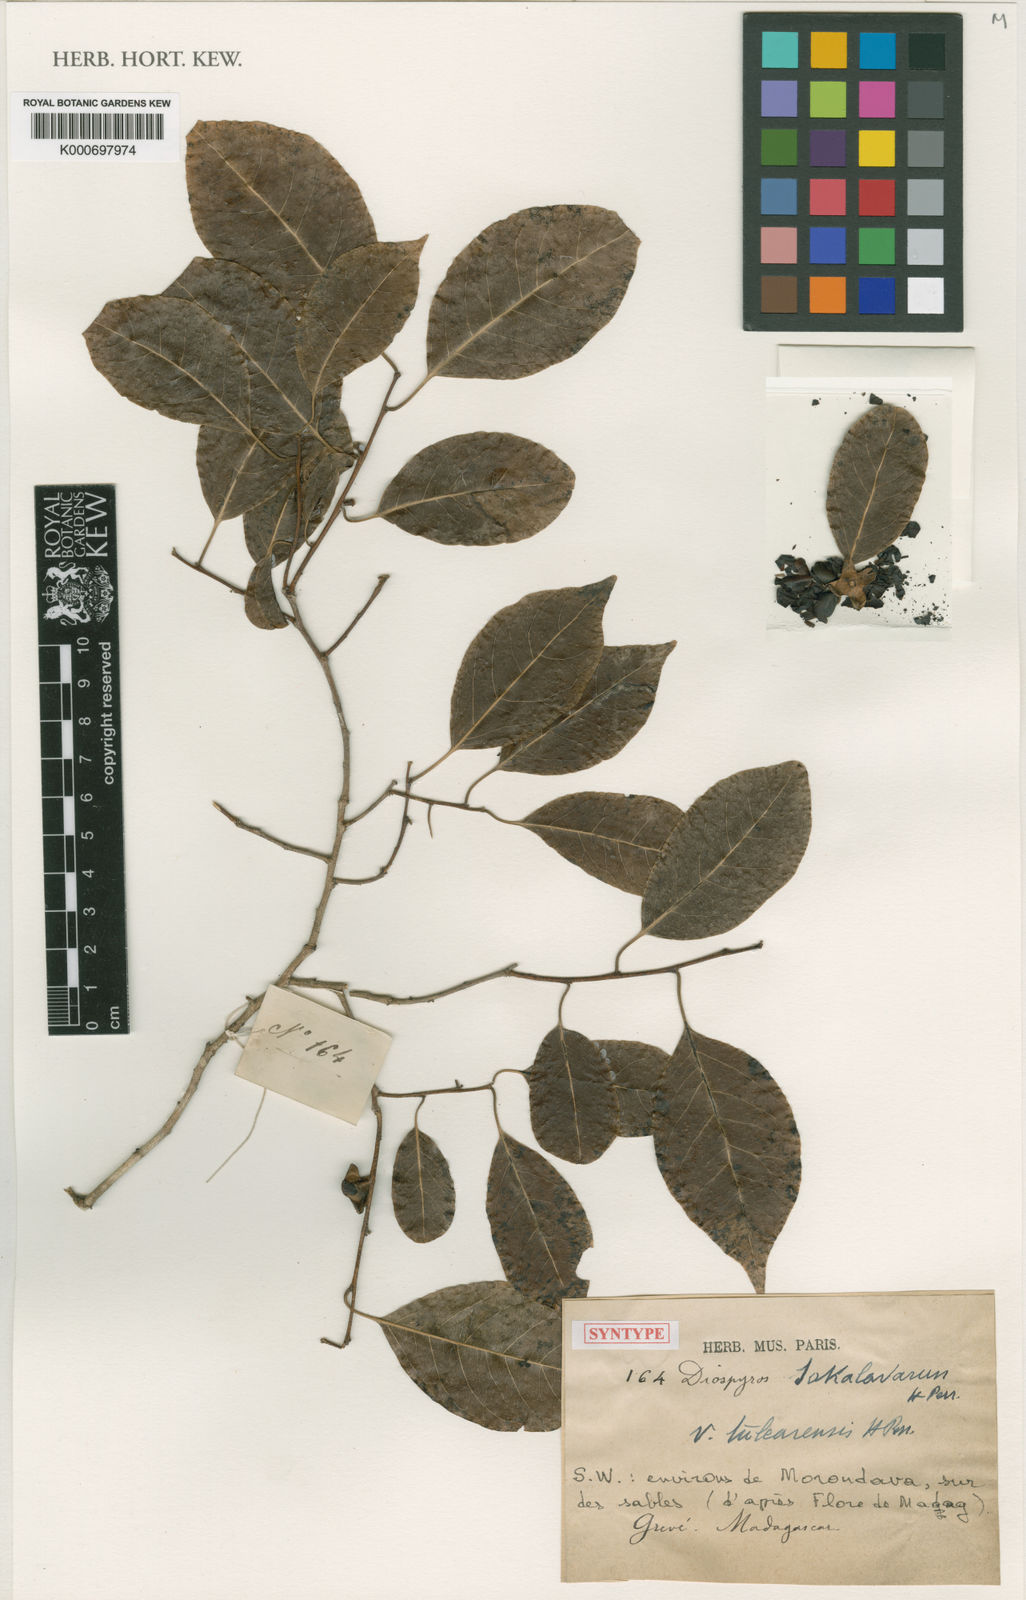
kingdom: Plantae
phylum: Tracheophyta
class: Magnoliopsida
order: Ericales
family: Ebenaceae
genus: Diospyros
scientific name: Diospyros sakalavarum
